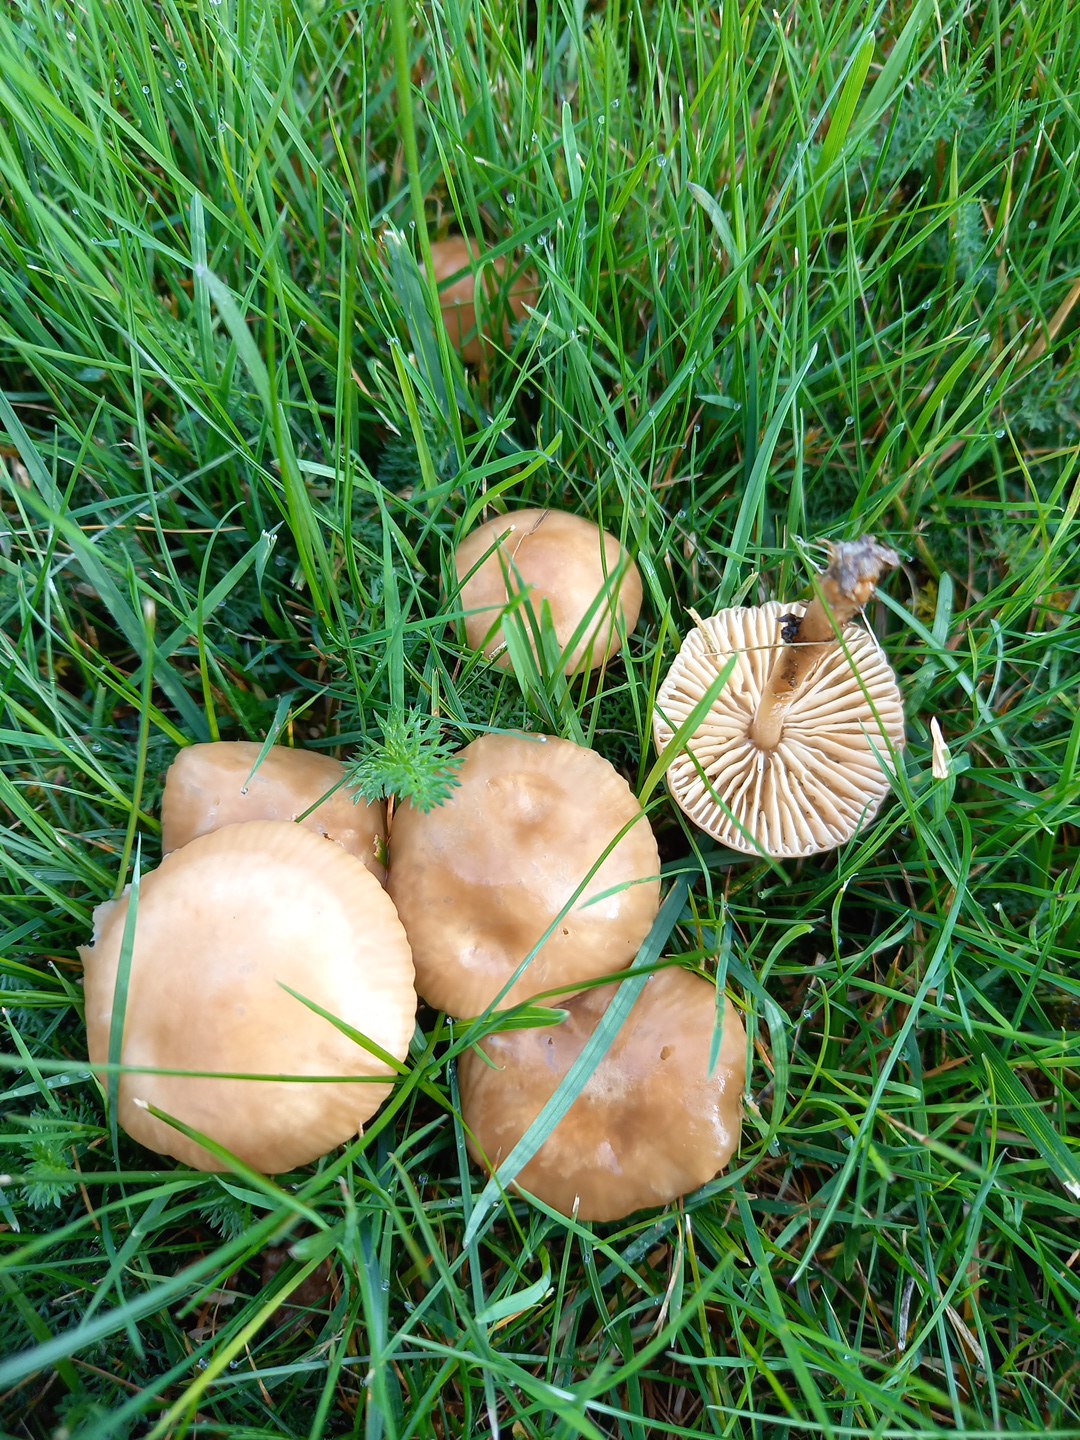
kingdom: Fungi
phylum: Basidiomycota
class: Agaricomycetes
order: Agaricales
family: Marasmiaceae
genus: Marasmius
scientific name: Marasmius oreades
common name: elledans-bruskhat
